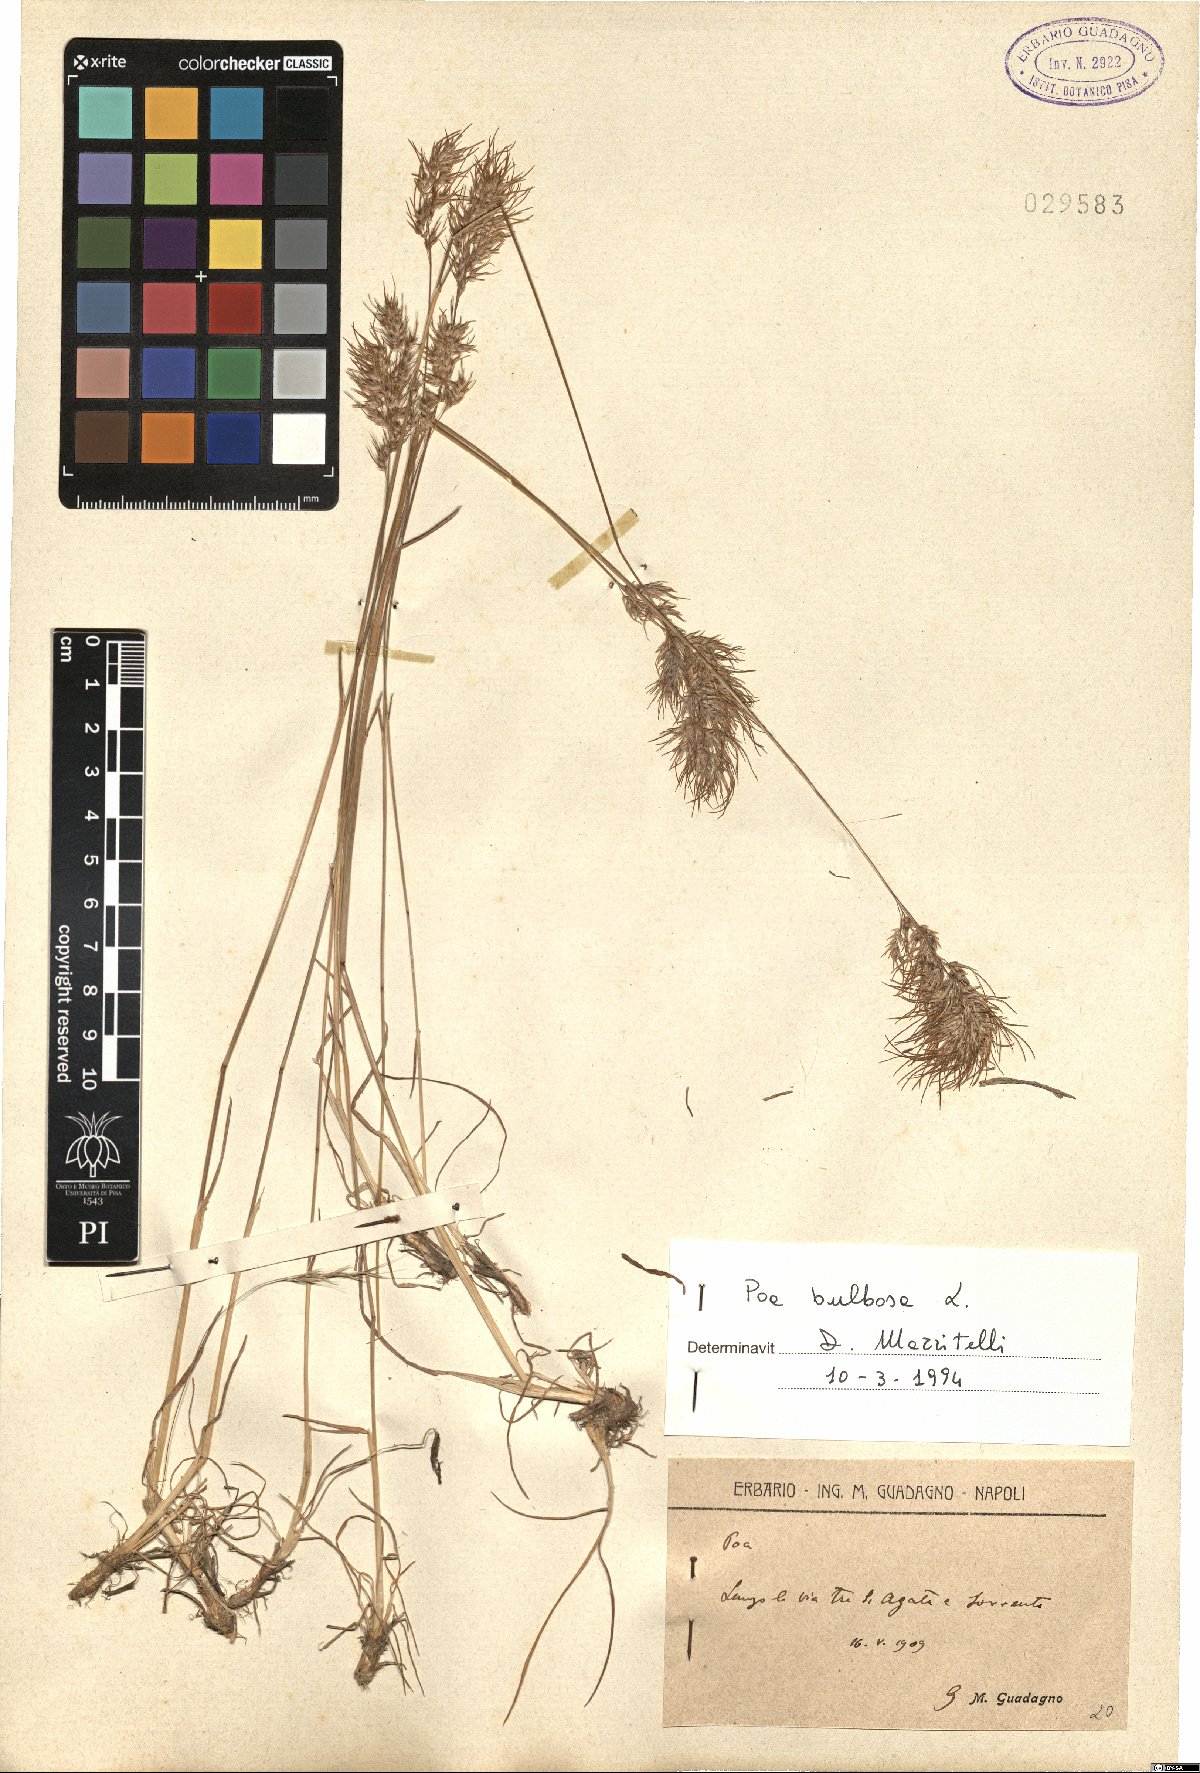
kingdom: Plantae
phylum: Tracheophyta
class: Liliopsida
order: Poales
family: Poaceae
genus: Poa
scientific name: Poa bulbosa
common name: Bulbous bluegrass
